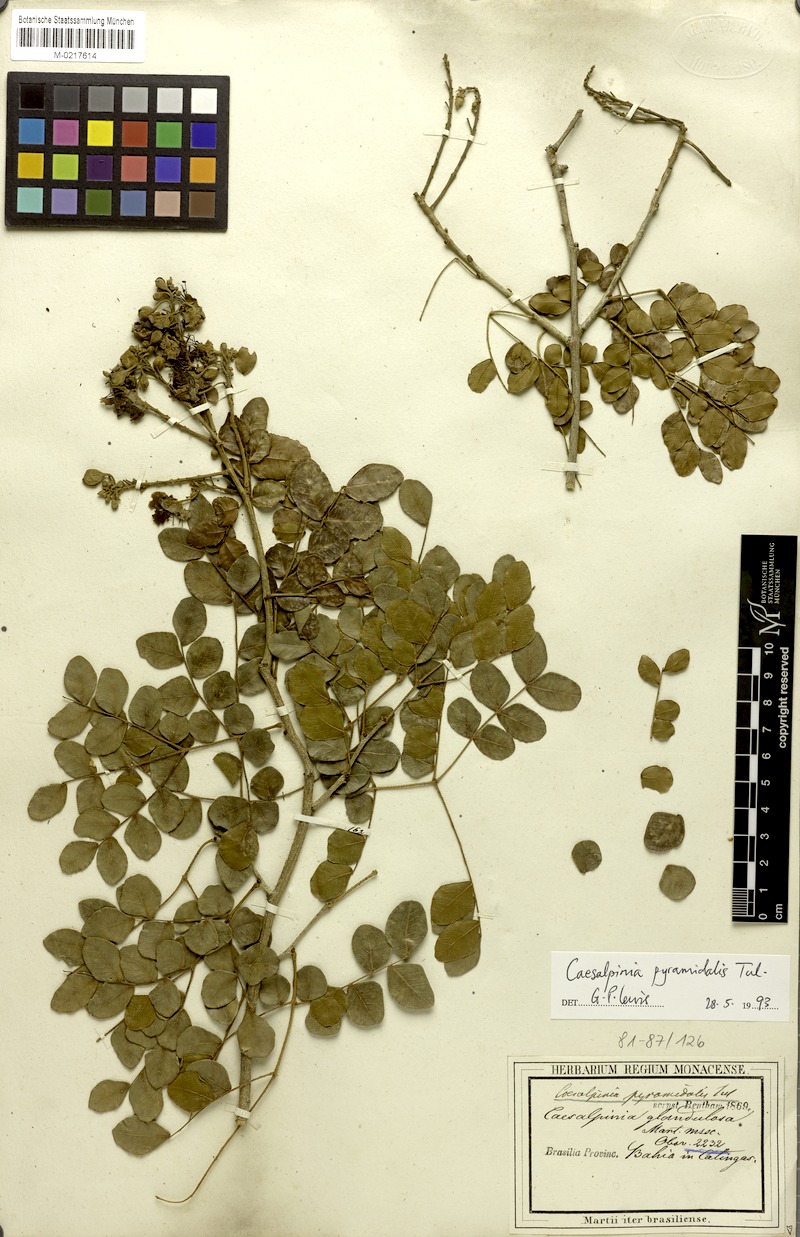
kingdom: Plantae
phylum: Tracheophyta
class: Magnoliopsida
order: Fabales
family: Fabaceae
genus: Cenostigma
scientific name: Cenostigma pyramidale
